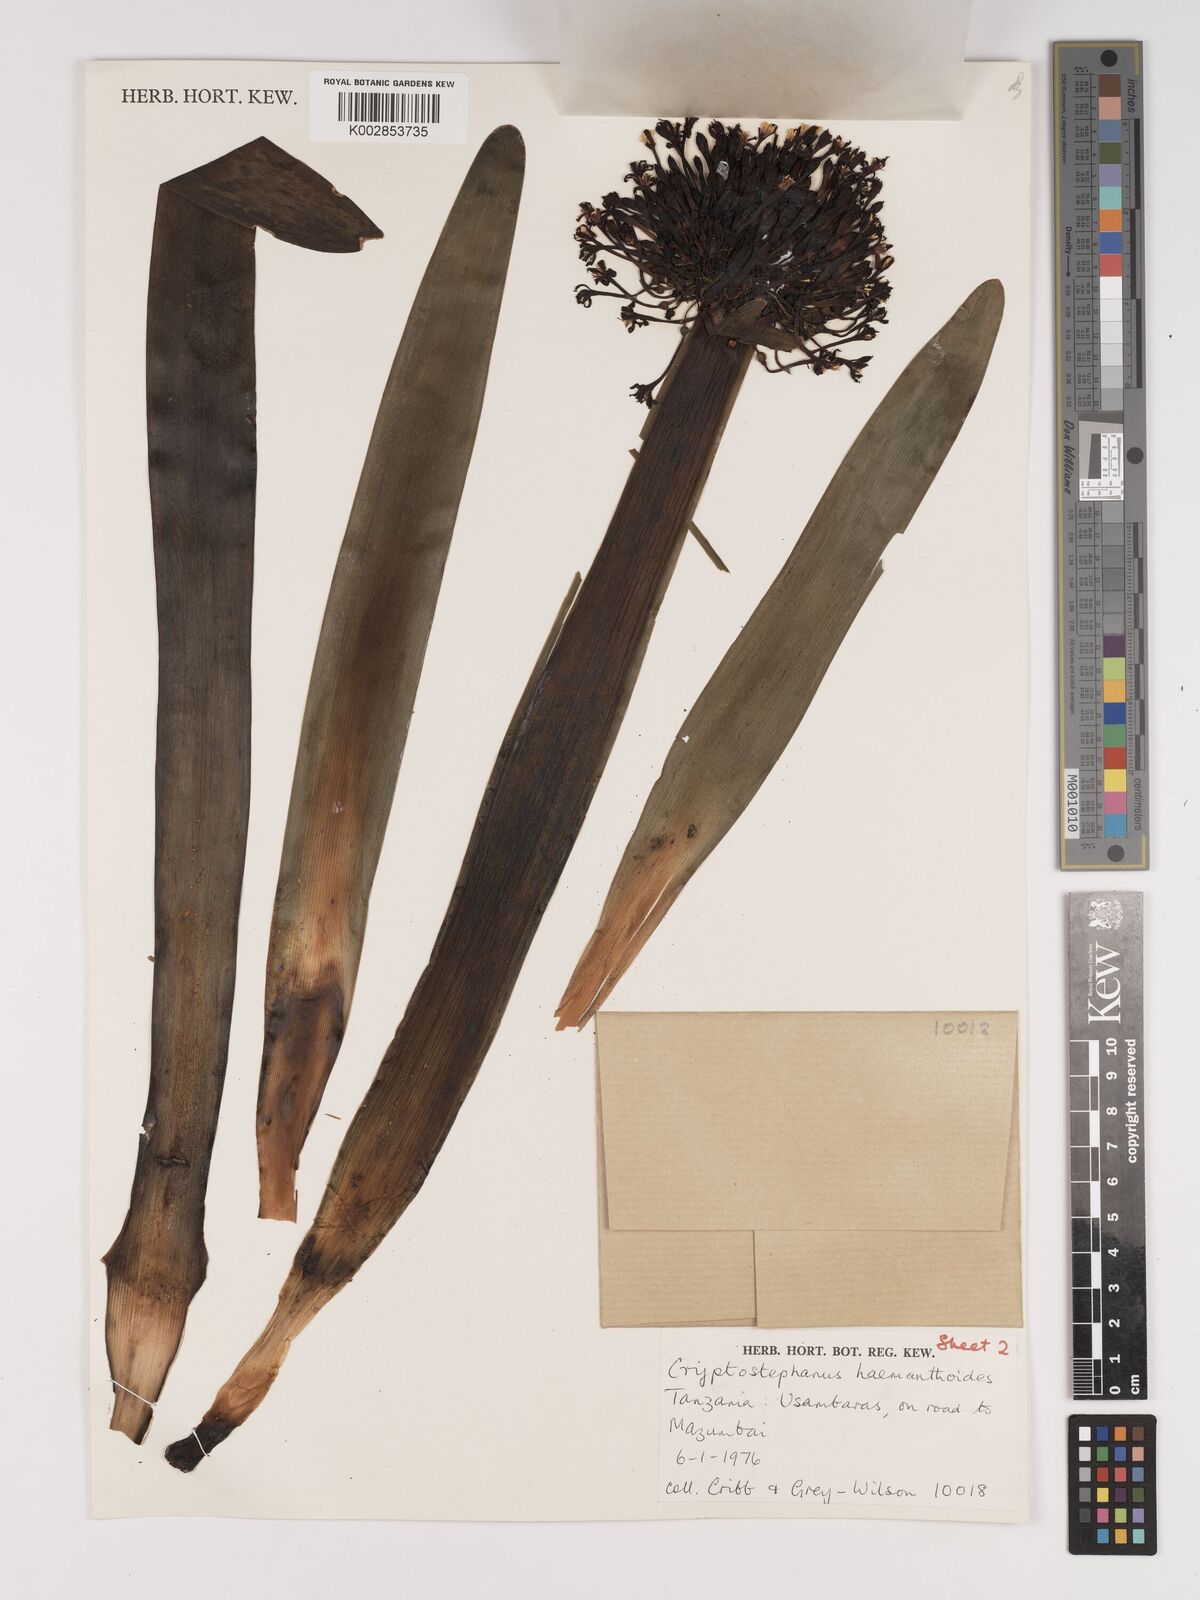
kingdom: Plantae
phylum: Tracheophyta
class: Liliopsida
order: Asparagales
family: Amaryllidaceae
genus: Cryptostephanus
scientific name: Cryptostephanus haemanthoides
